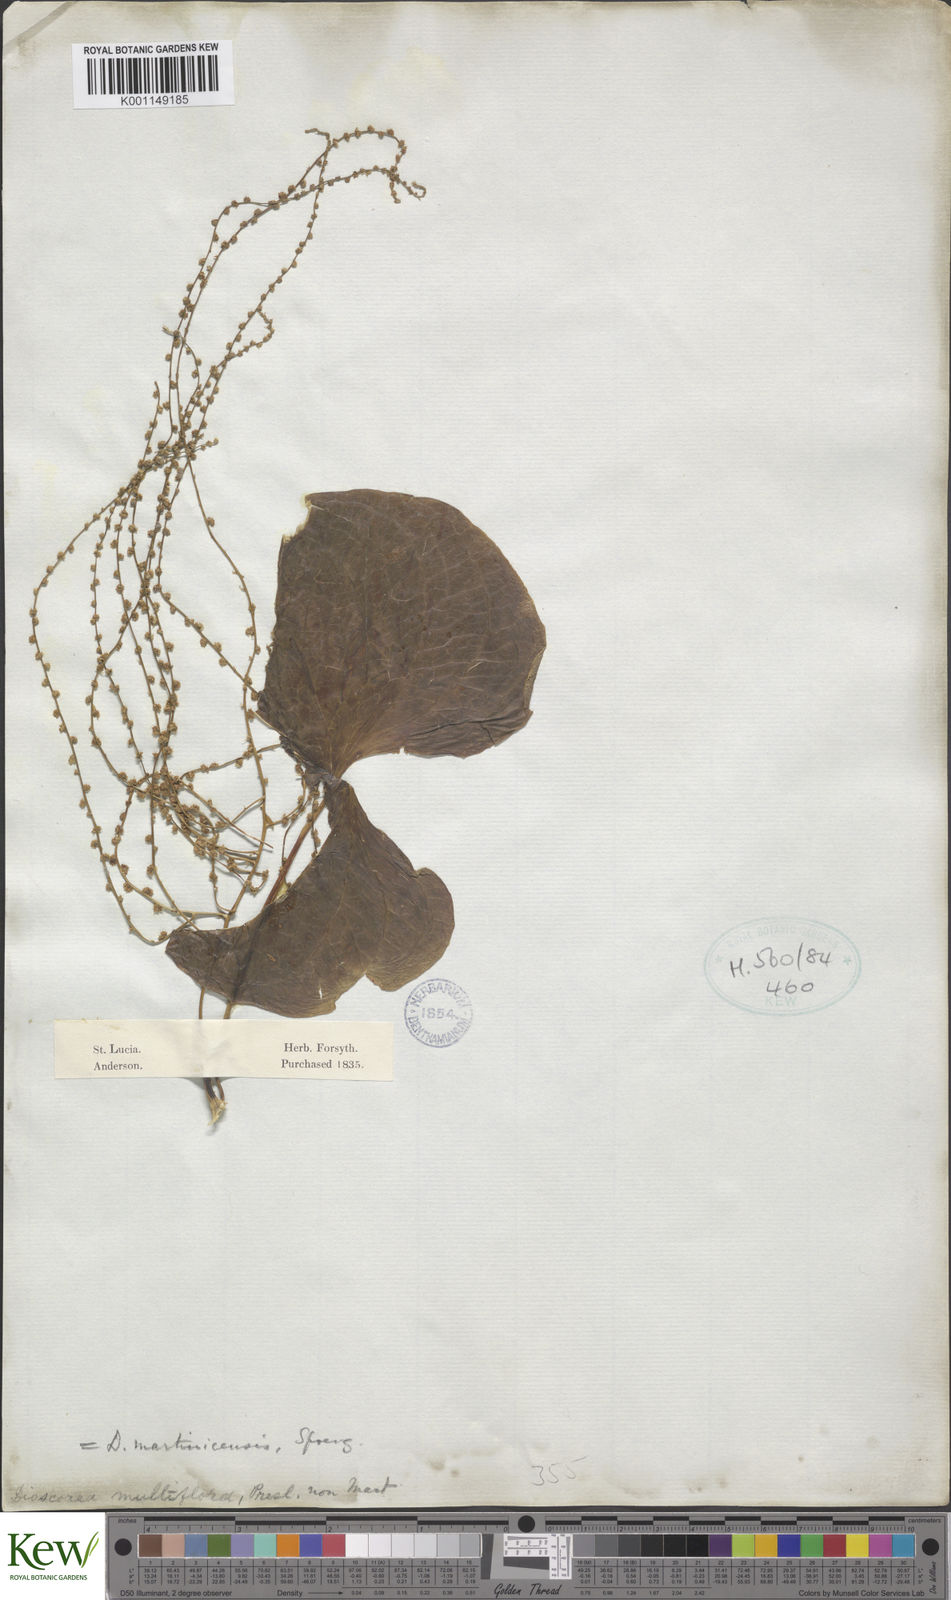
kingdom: Plantae
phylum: Tracheophyta
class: Liliopsida
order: Dioscoreales
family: Dioscoreaceae
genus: Dioscorea
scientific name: Dioscorea polygonoides
